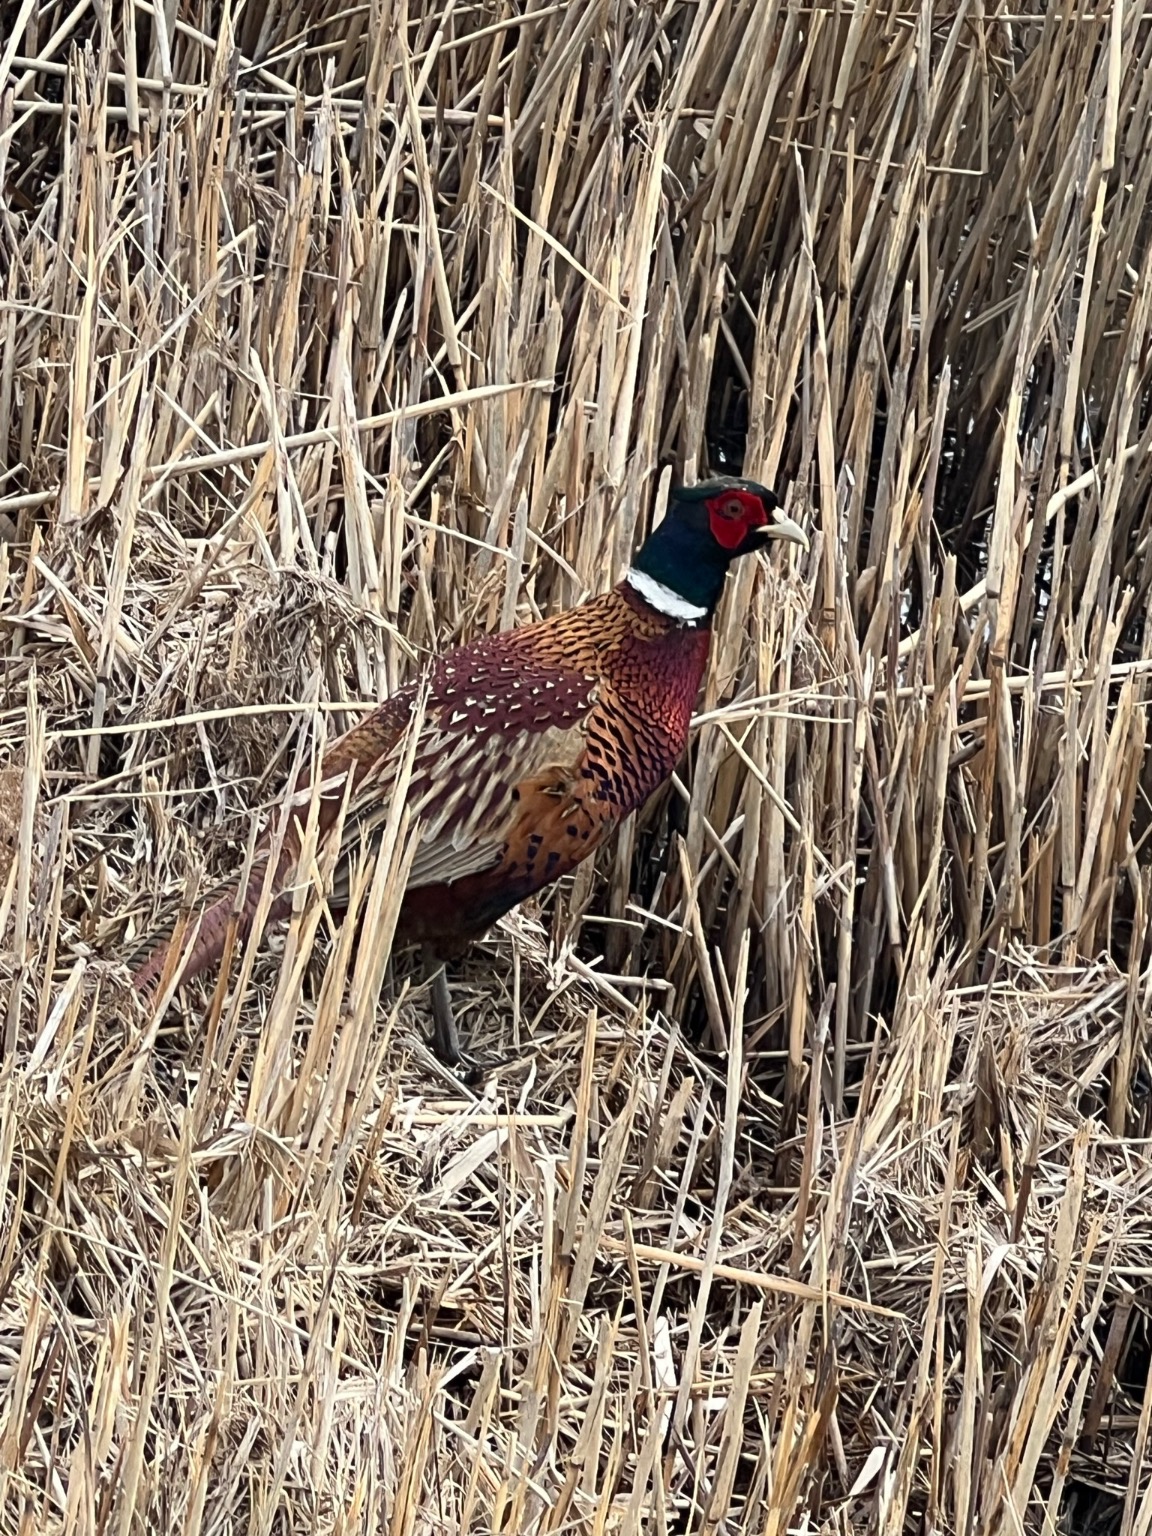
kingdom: Animalia
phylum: Chordata
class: Aves
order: Galliformes
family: Phasianidae
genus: Phasianus
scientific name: Phasianus colchicus
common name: Fasan
